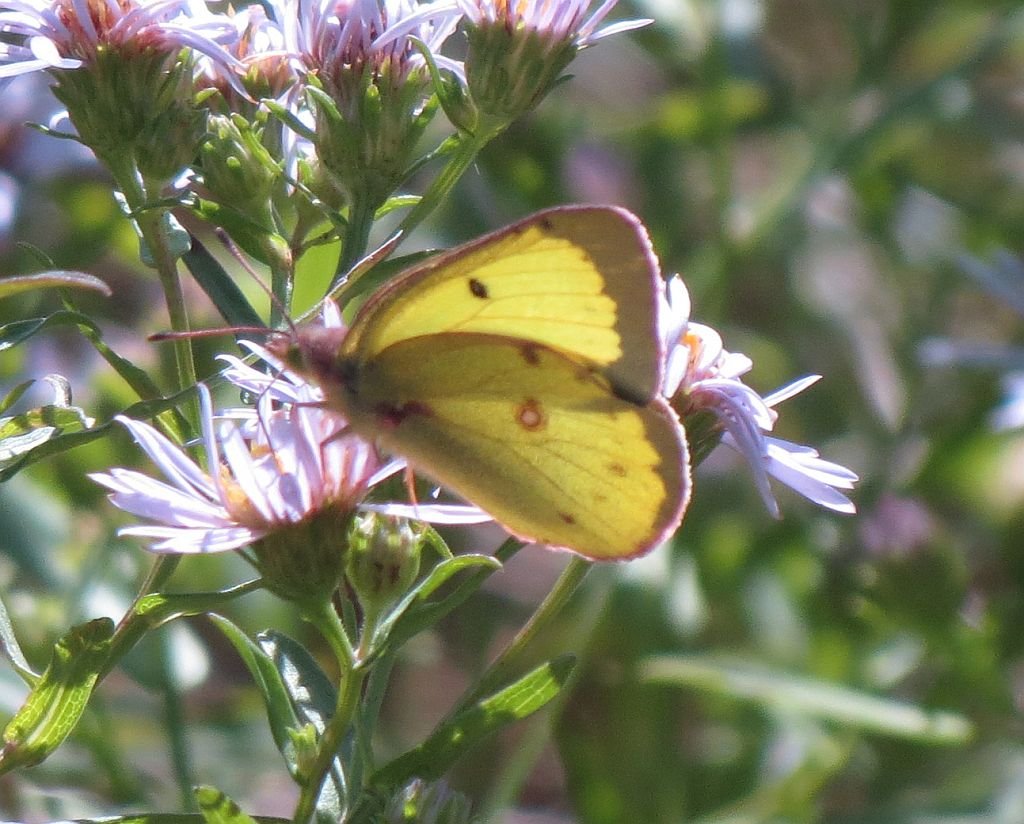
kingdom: Animalia
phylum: Arthropoda
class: Insecta
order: Lepidoptera
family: Pieridae
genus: Colias
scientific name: Colias philodice
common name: Clouded Sulphur
